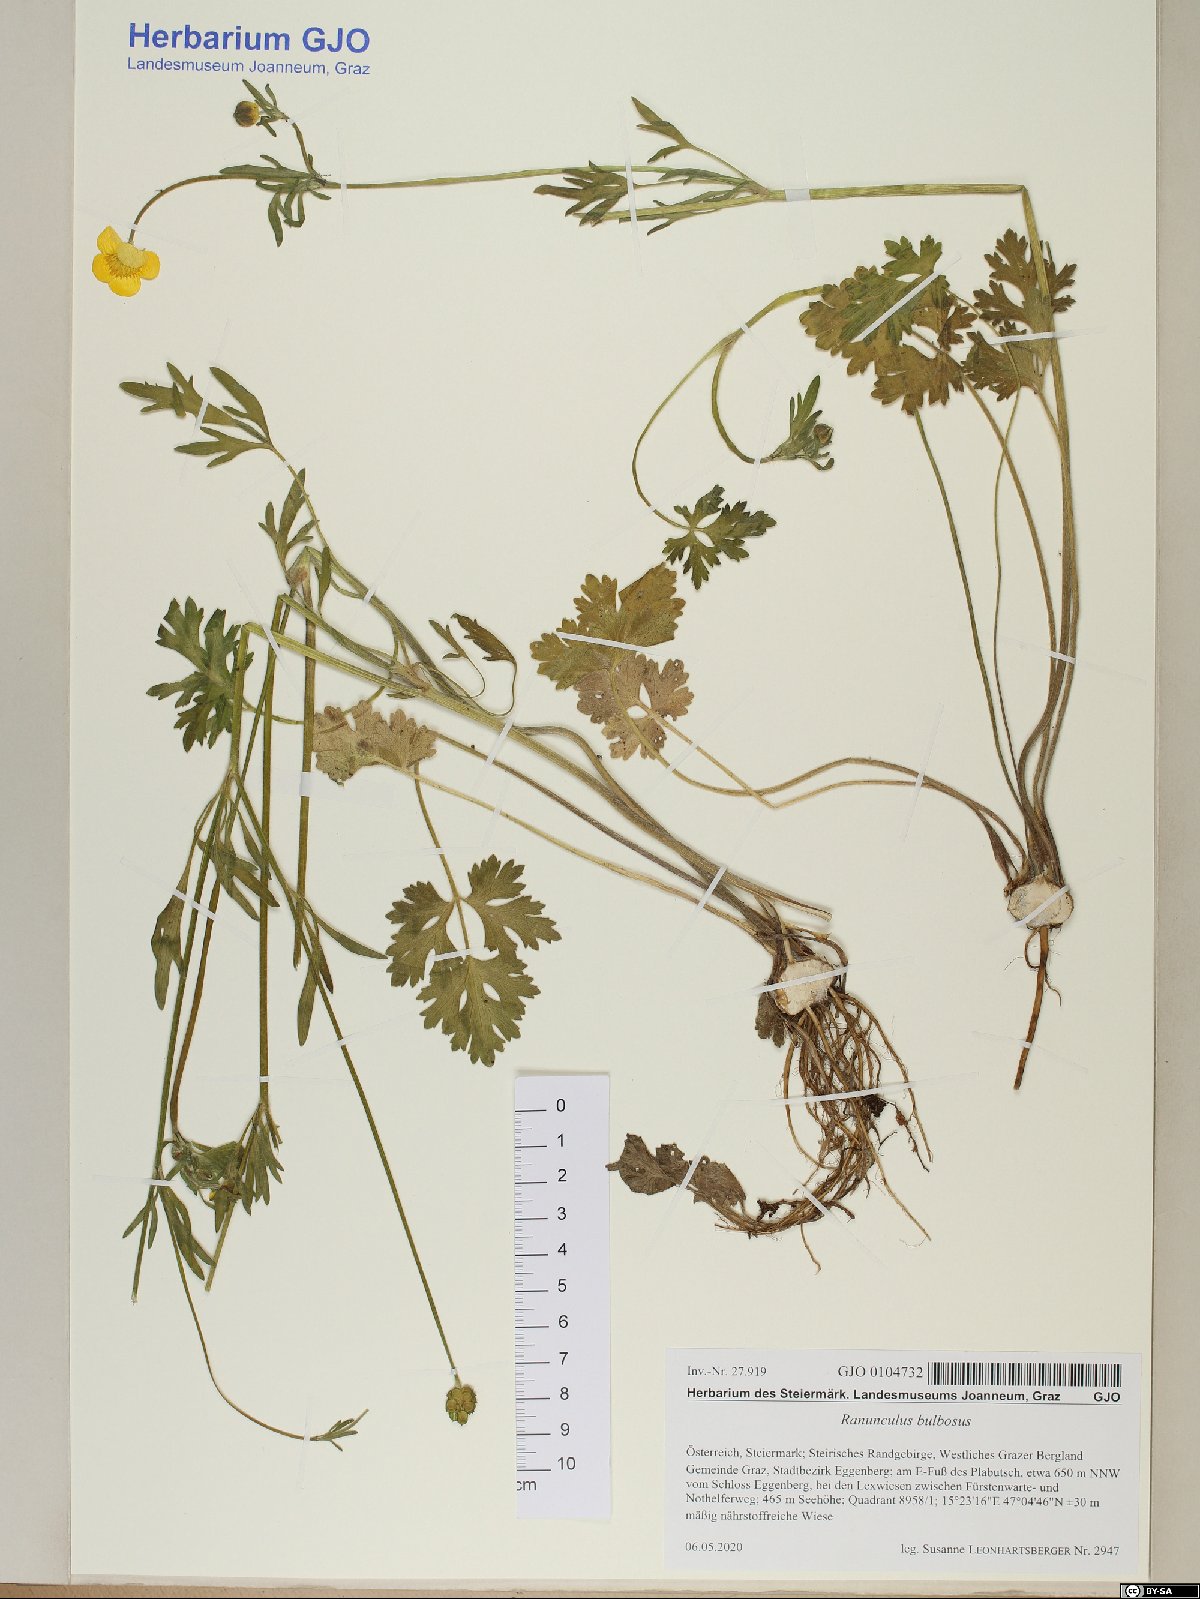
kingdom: Plantae
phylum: Tracheophyta
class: Magnoliopsida
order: Ranunculales
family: Ranunculaceae
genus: Ranunculus
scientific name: Ranunculus bulbosus
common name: Bulbous buttercup
